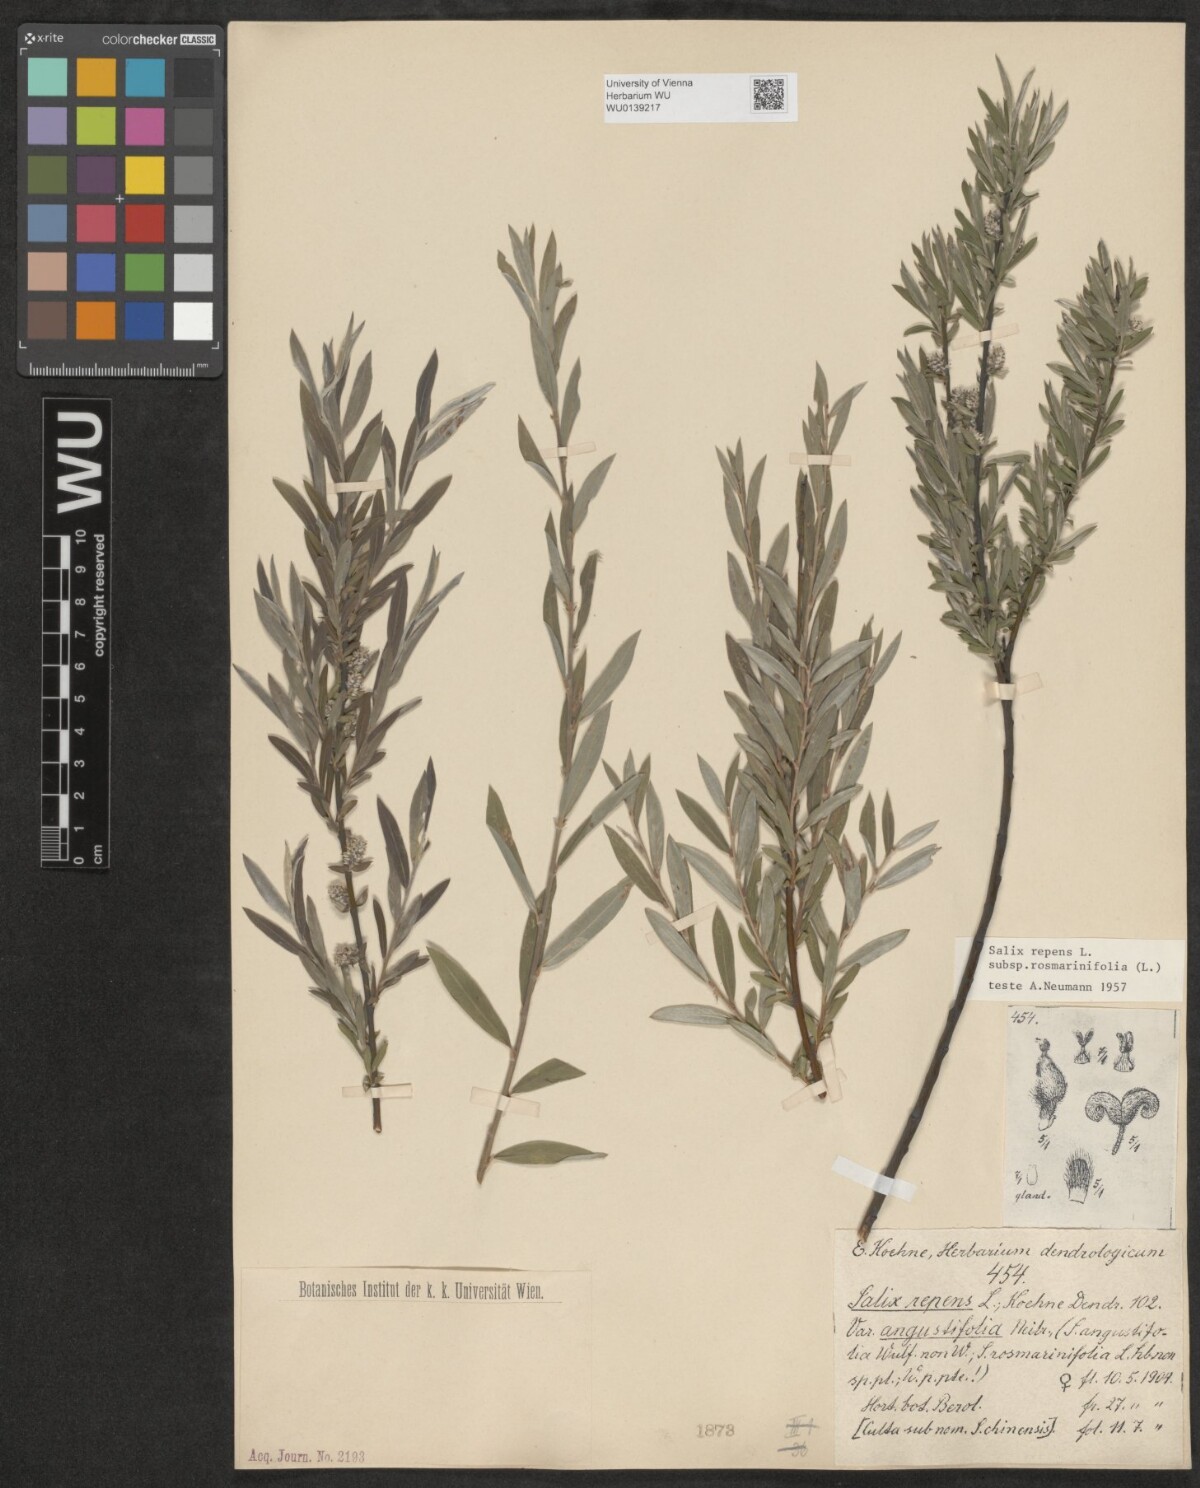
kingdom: Plantae
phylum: Tracheophyta
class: Magnoliopsida
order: Malpighiales
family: Salicaceae
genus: Salix
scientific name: Salix repens
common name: Creeping willow
